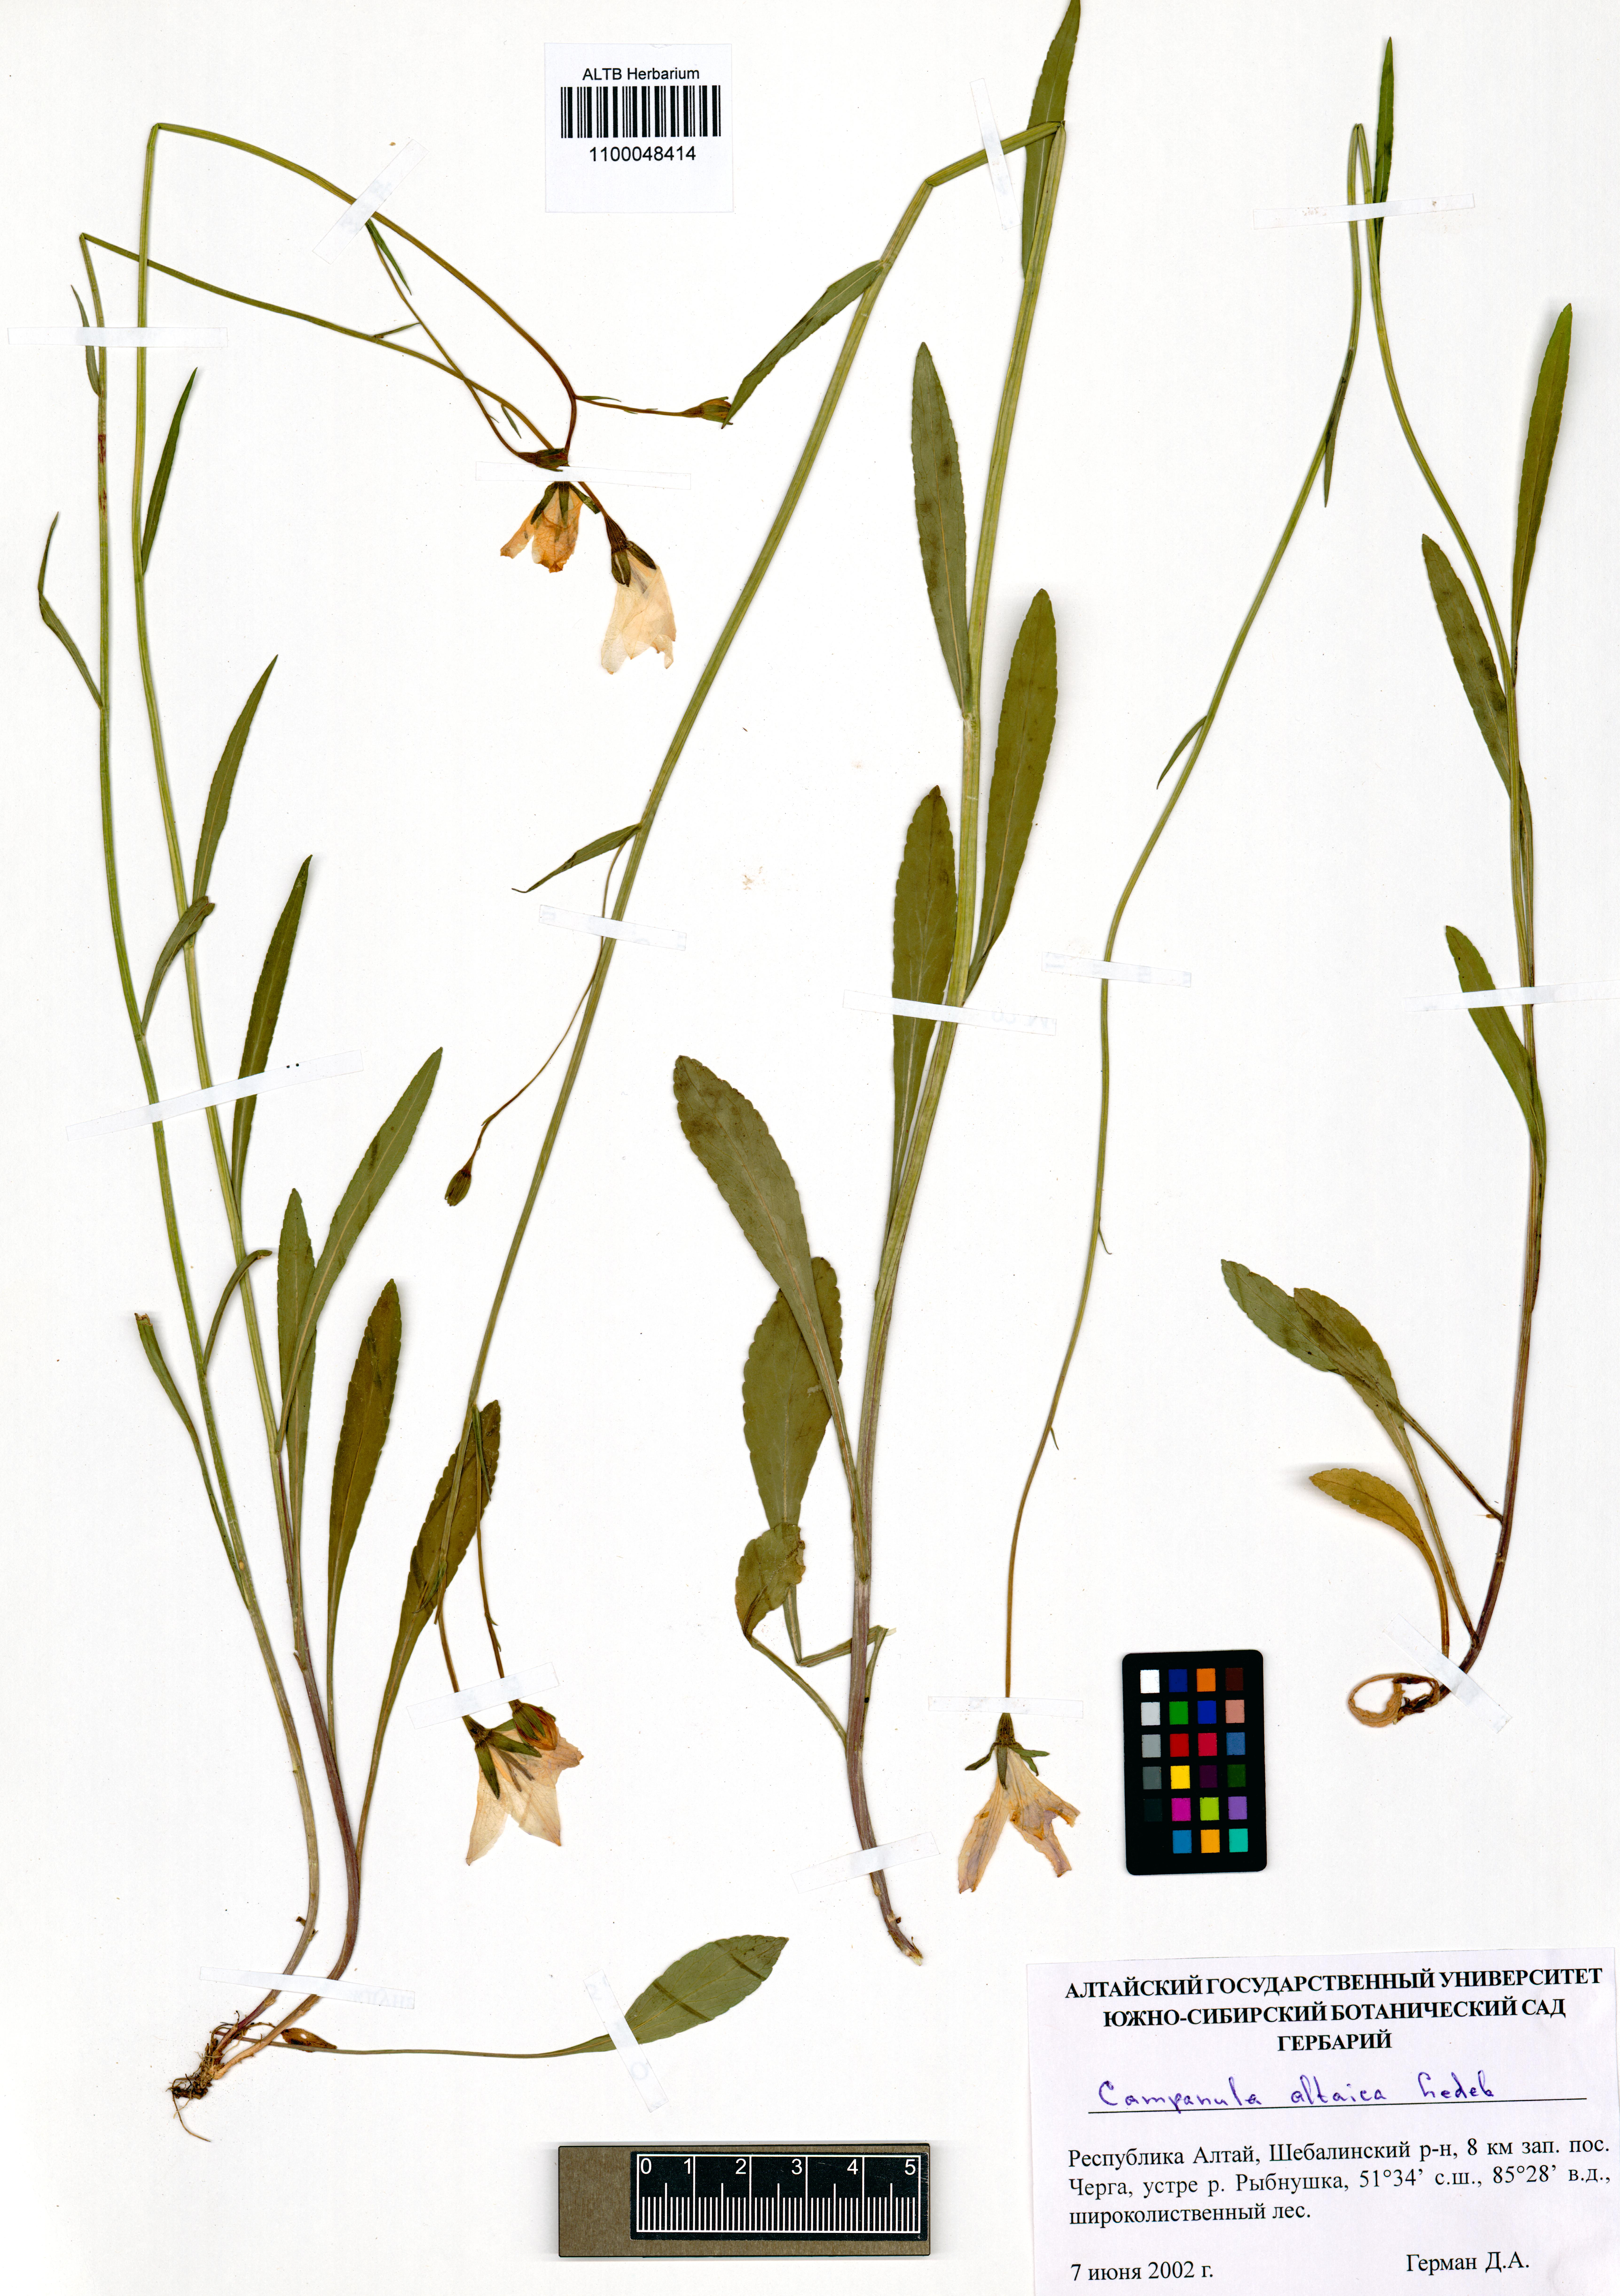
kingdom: Plantae
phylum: Tracheophyta
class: Magnoliopsida
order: Asterales
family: Campanulaceae
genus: Campanula
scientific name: Campanula stevenii
